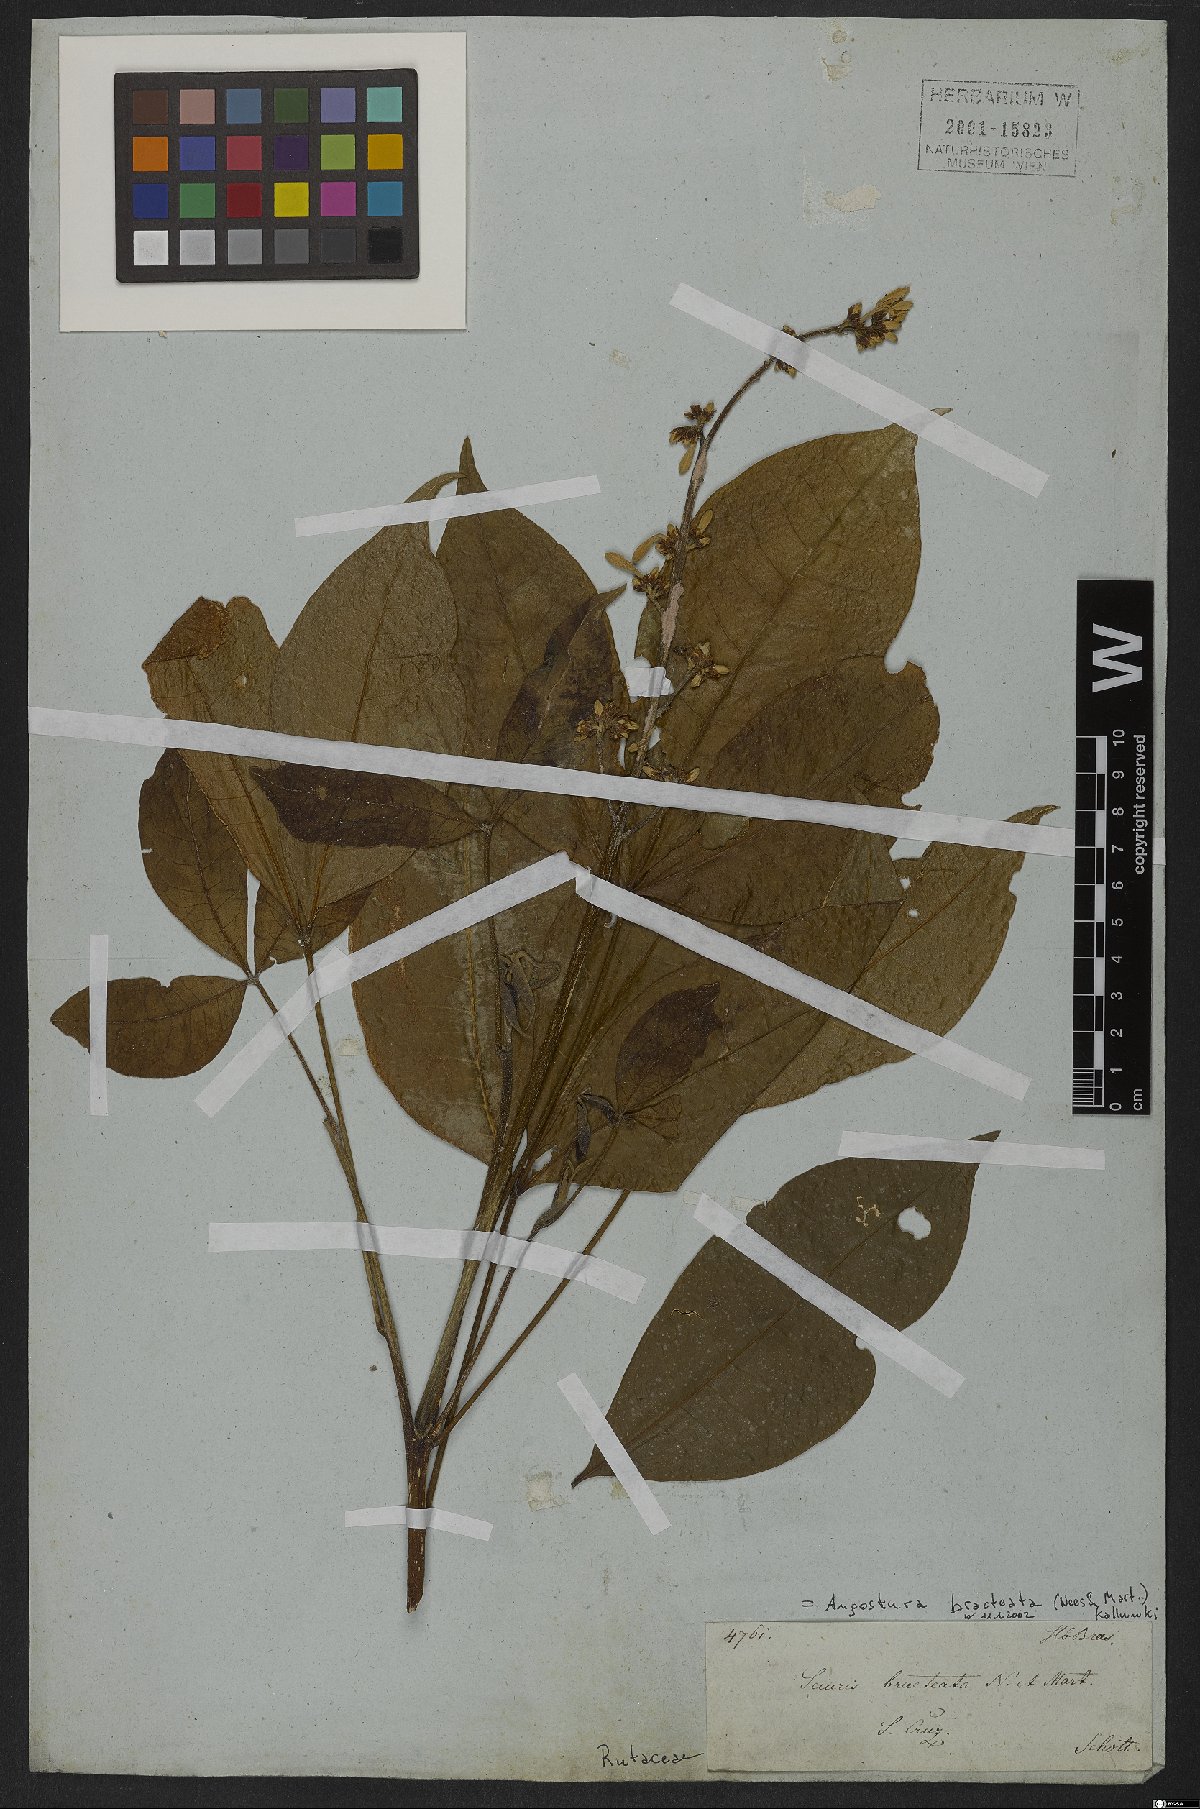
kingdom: Plantae
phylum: Tracheophyta
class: Magnoliopsida
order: Sapindales
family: Rutaceae
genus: Angostura
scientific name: Angostura bracteata
